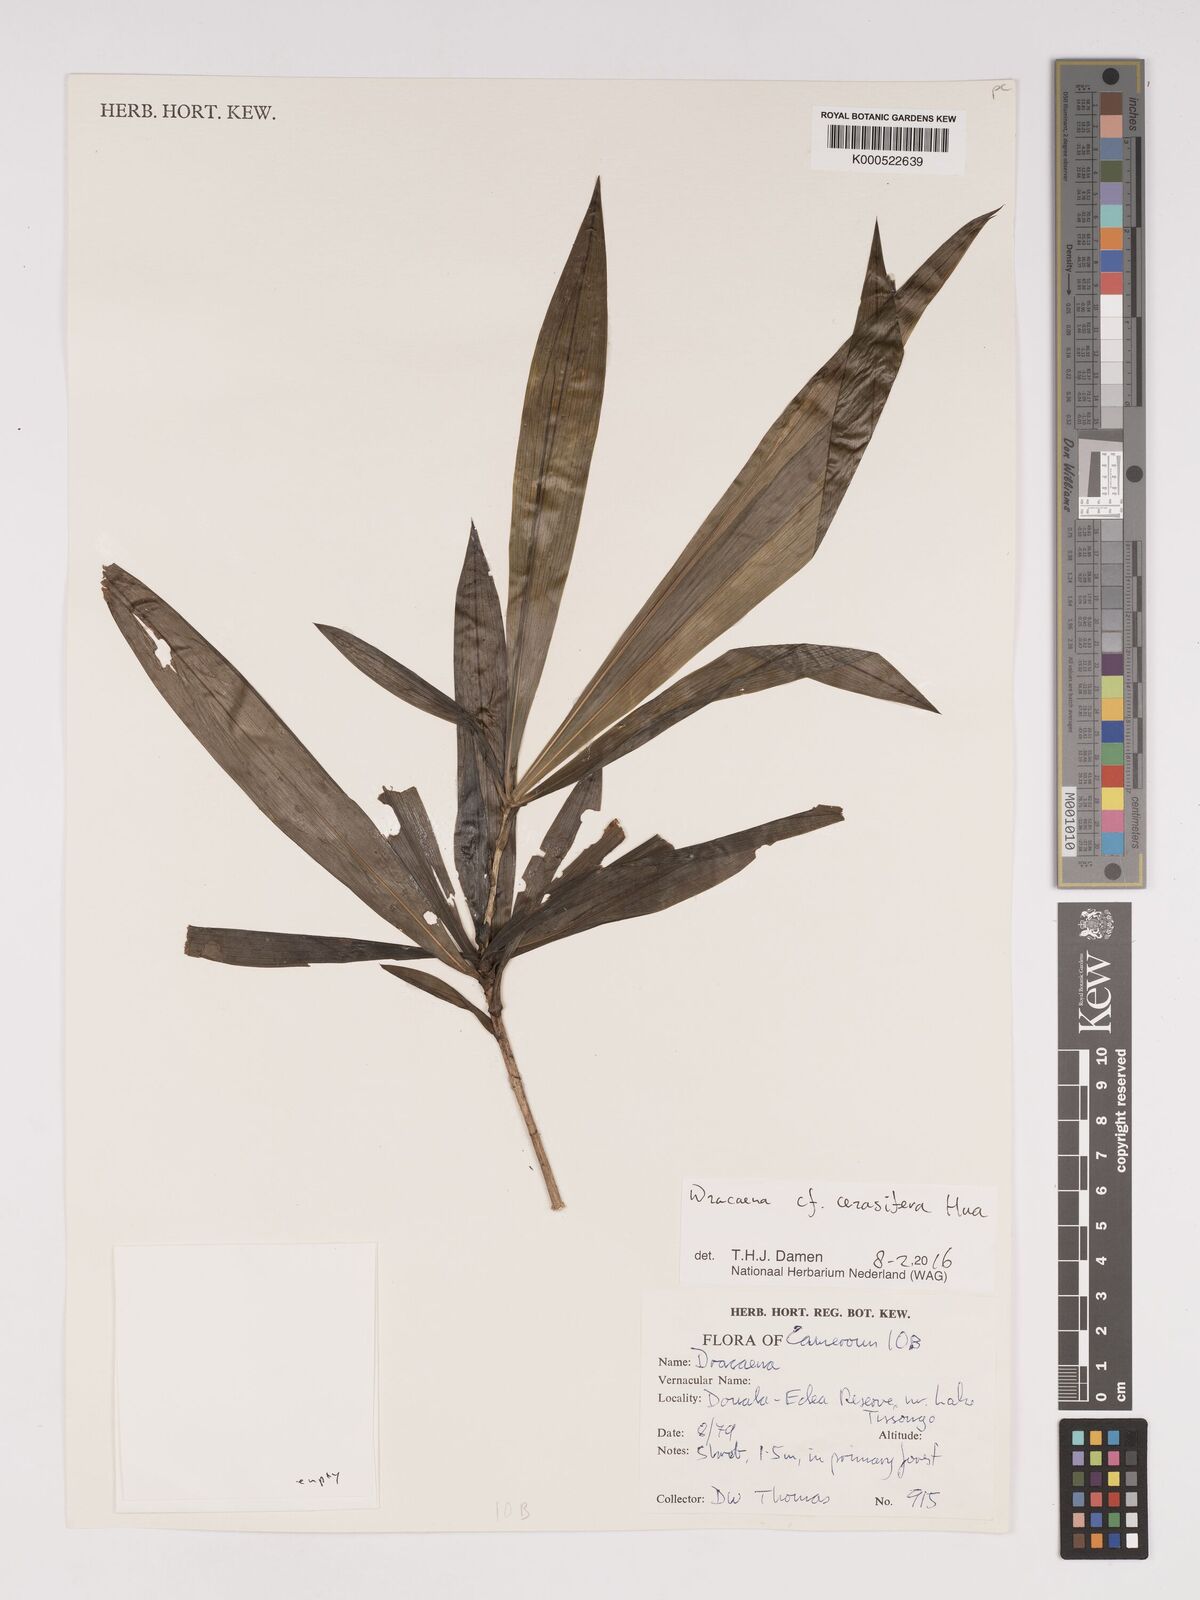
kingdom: Plantae
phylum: Tracheophyta
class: Liliopsida
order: Asparagales
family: Asparagaceae
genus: Dracaena
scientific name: Dracaena cerasifera
